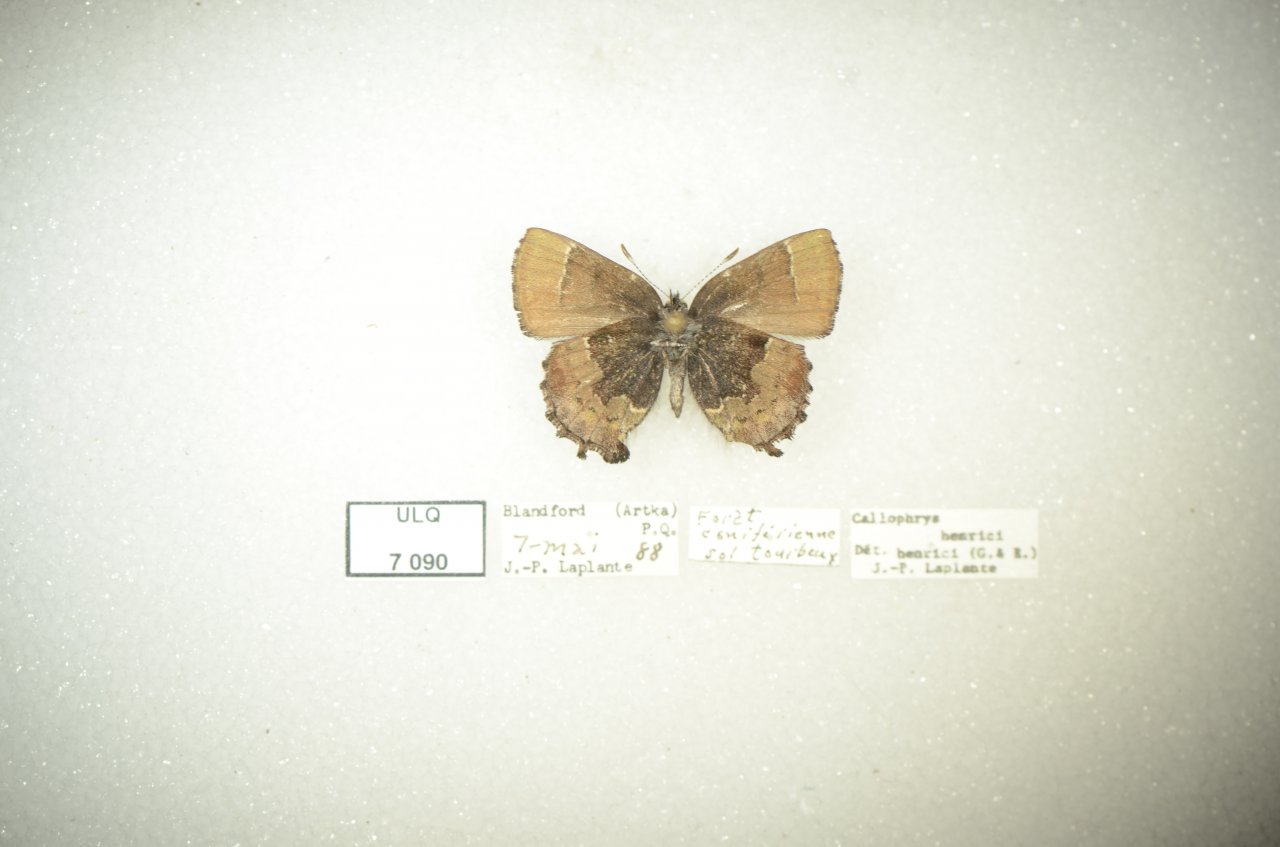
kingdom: Animalia
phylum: Arthropoda
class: Insecta
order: Lepidoptera
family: Lycaenidae
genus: Incisalia
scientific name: Incisalia henrici
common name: Henry's Elfin
